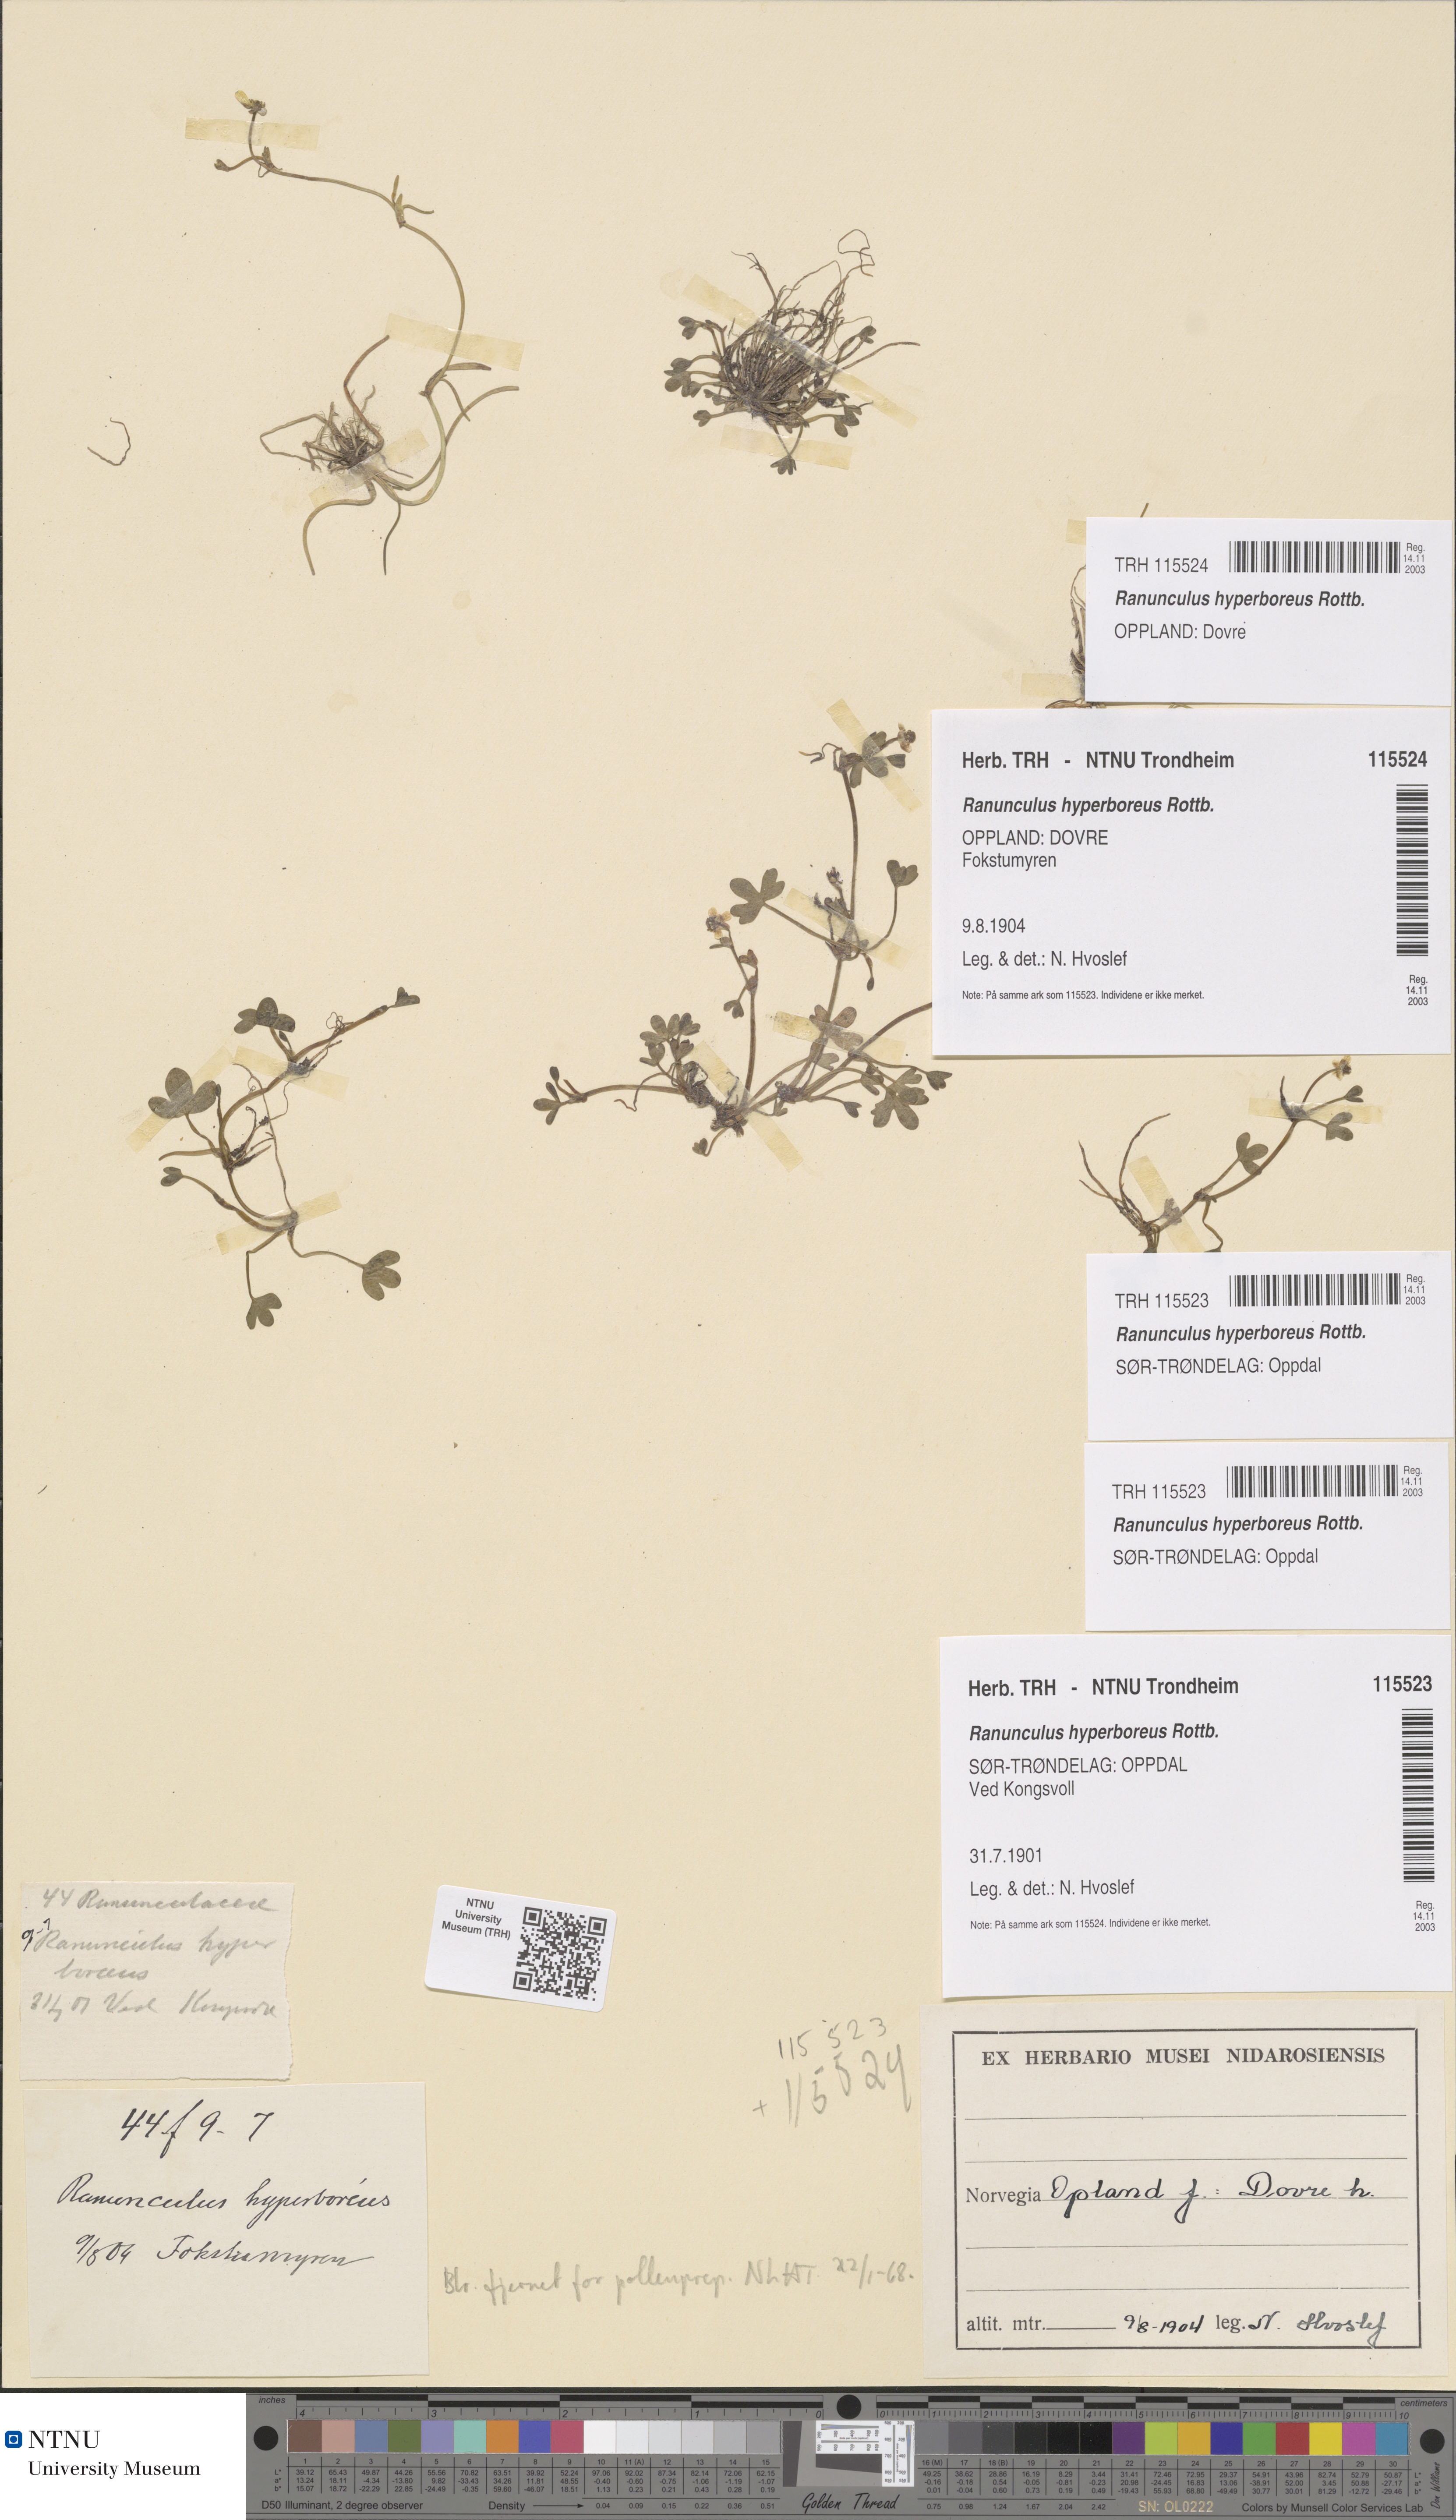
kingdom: Plantae
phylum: Tracheophyta
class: Magnoliopsida
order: Ranunculales
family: Ranunculaceae
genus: Ranunculus
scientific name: Ranunculus hyperboreus
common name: Arctic buttercup
